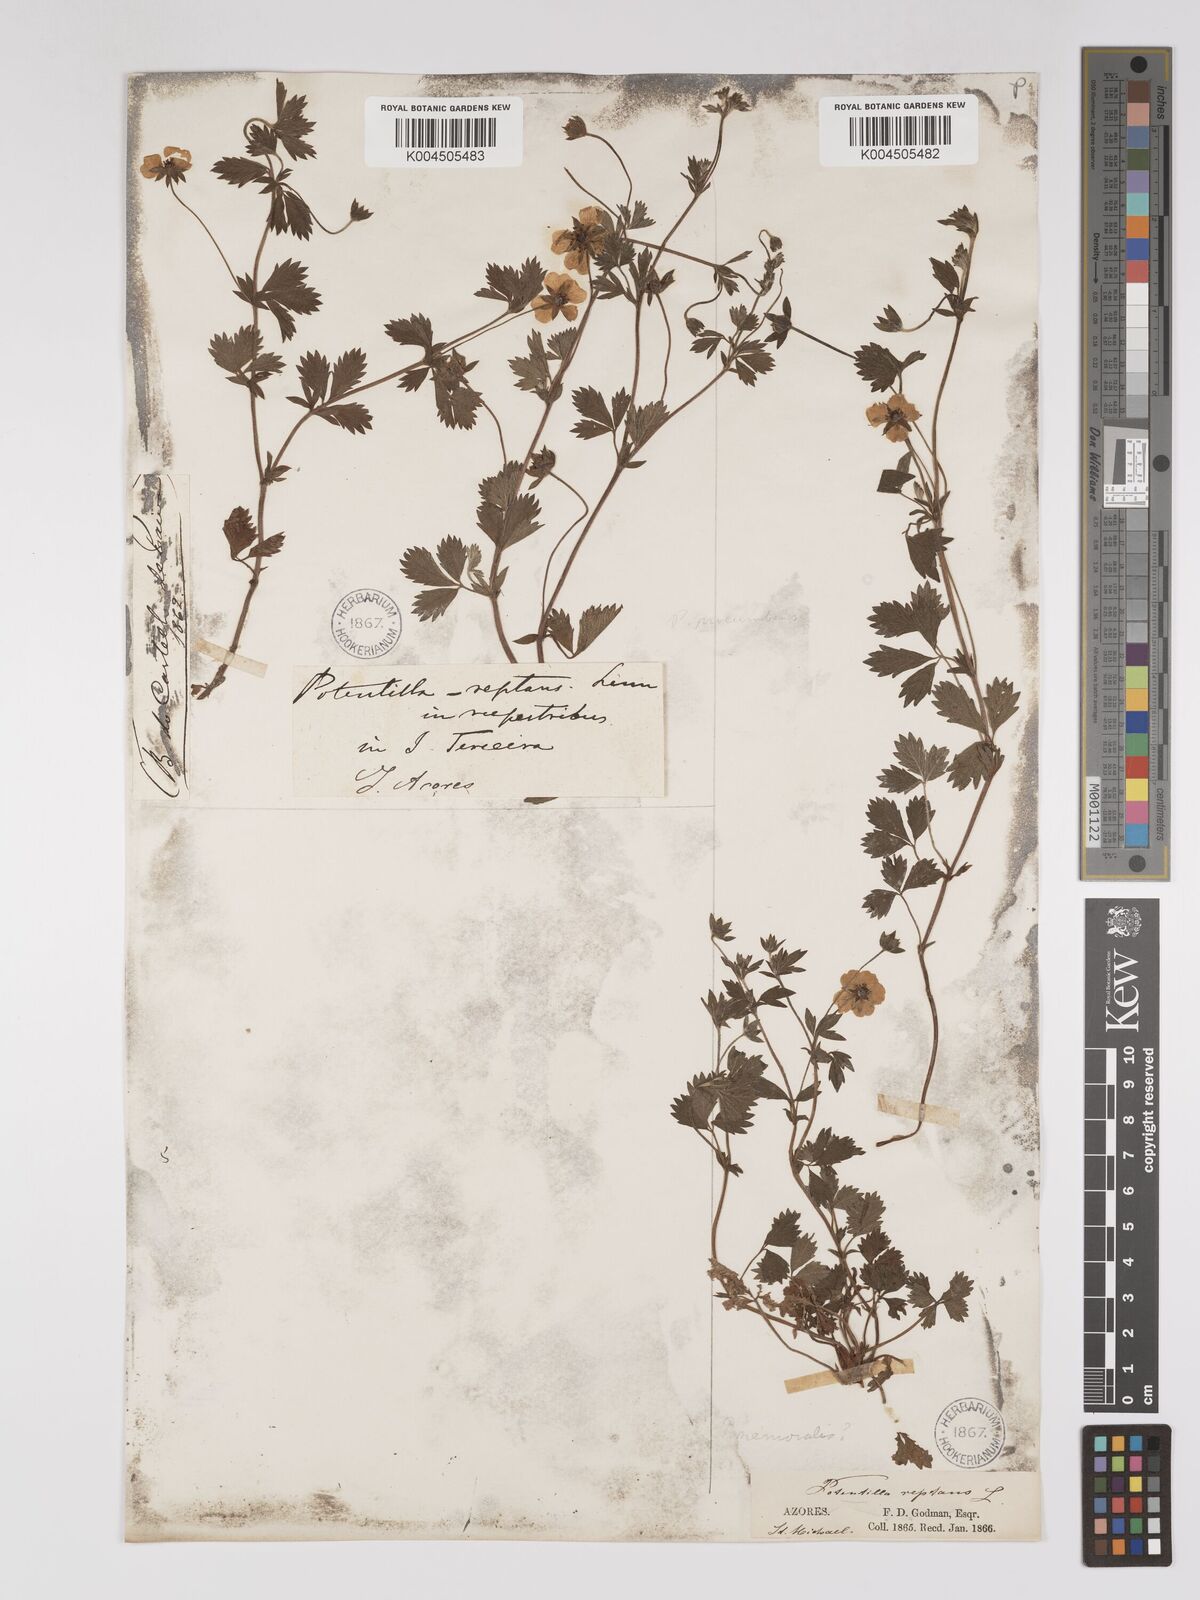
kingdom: Plantae
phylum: Tracheophyta
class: Magnoliopsida
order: Rosales
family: Rosaceae
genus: Potentilla
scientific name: Potentilla
